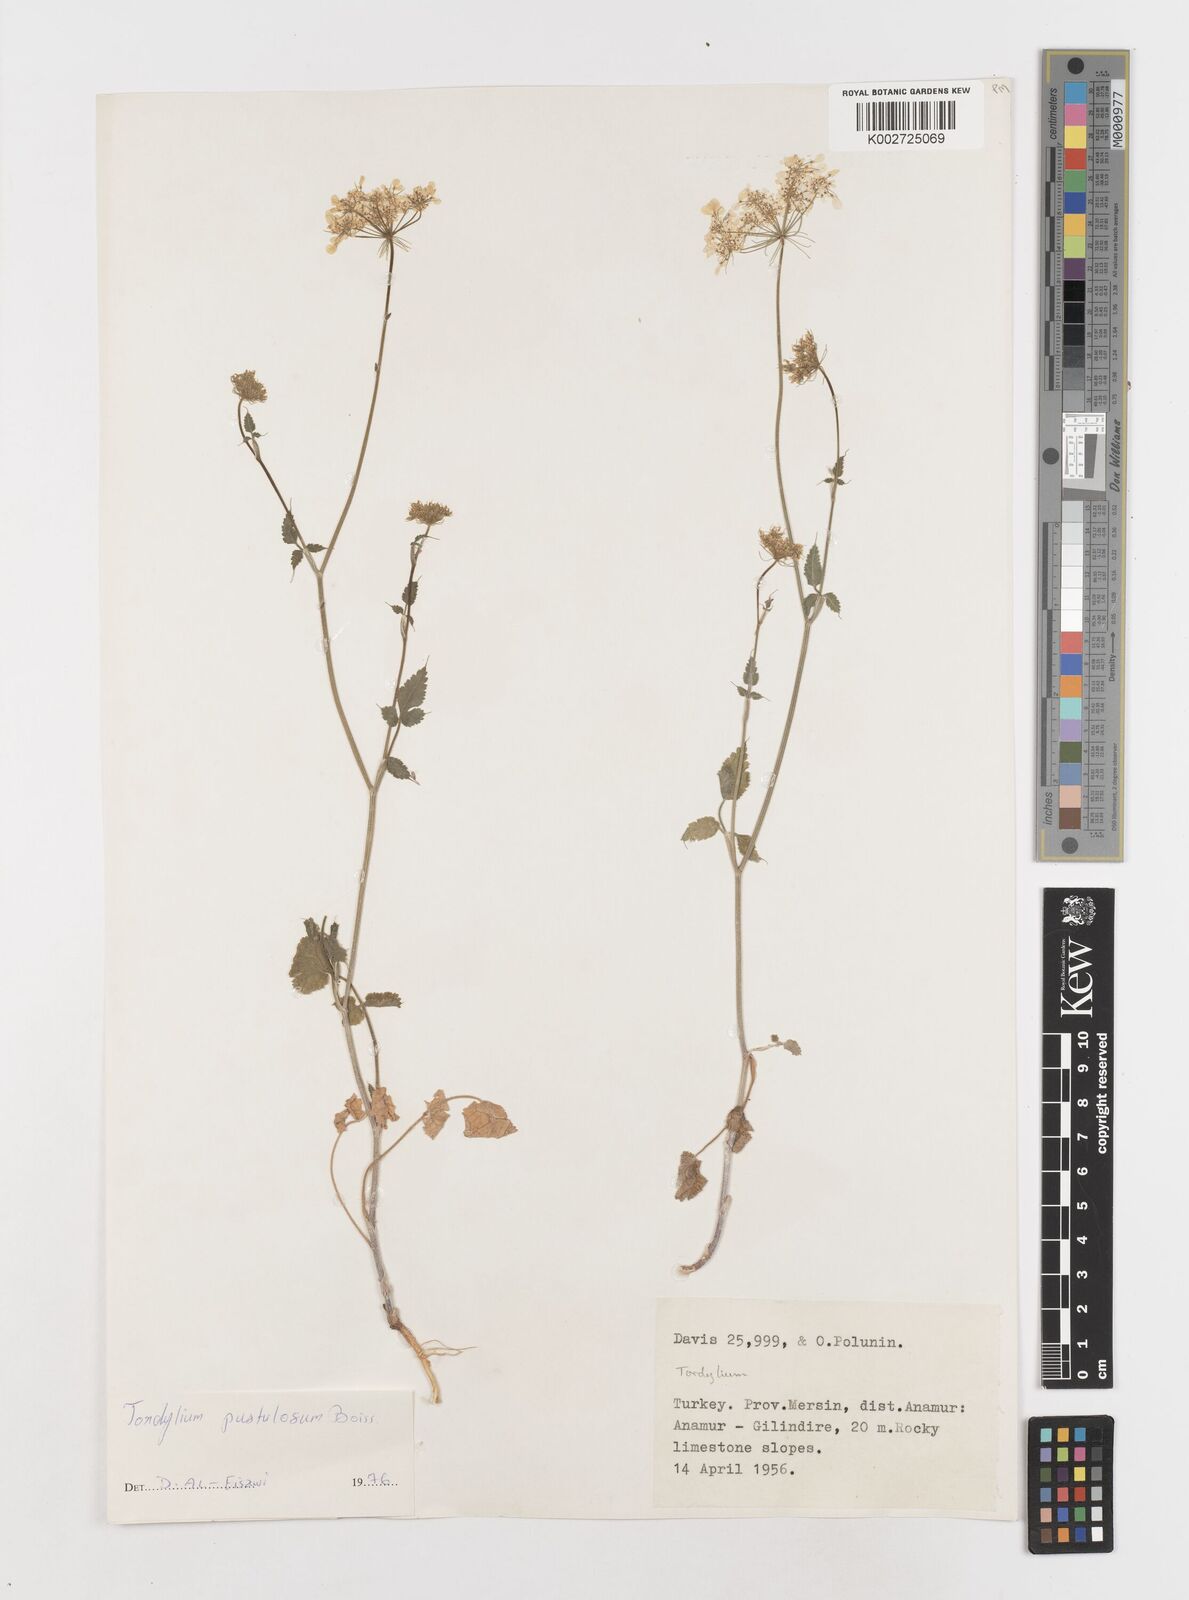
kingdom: Plantae
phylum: Tracheophyta
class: Magnoliopsida
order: Apiales
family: Apiaceae
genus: Tordylium
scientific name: Tordylium pustulosum
